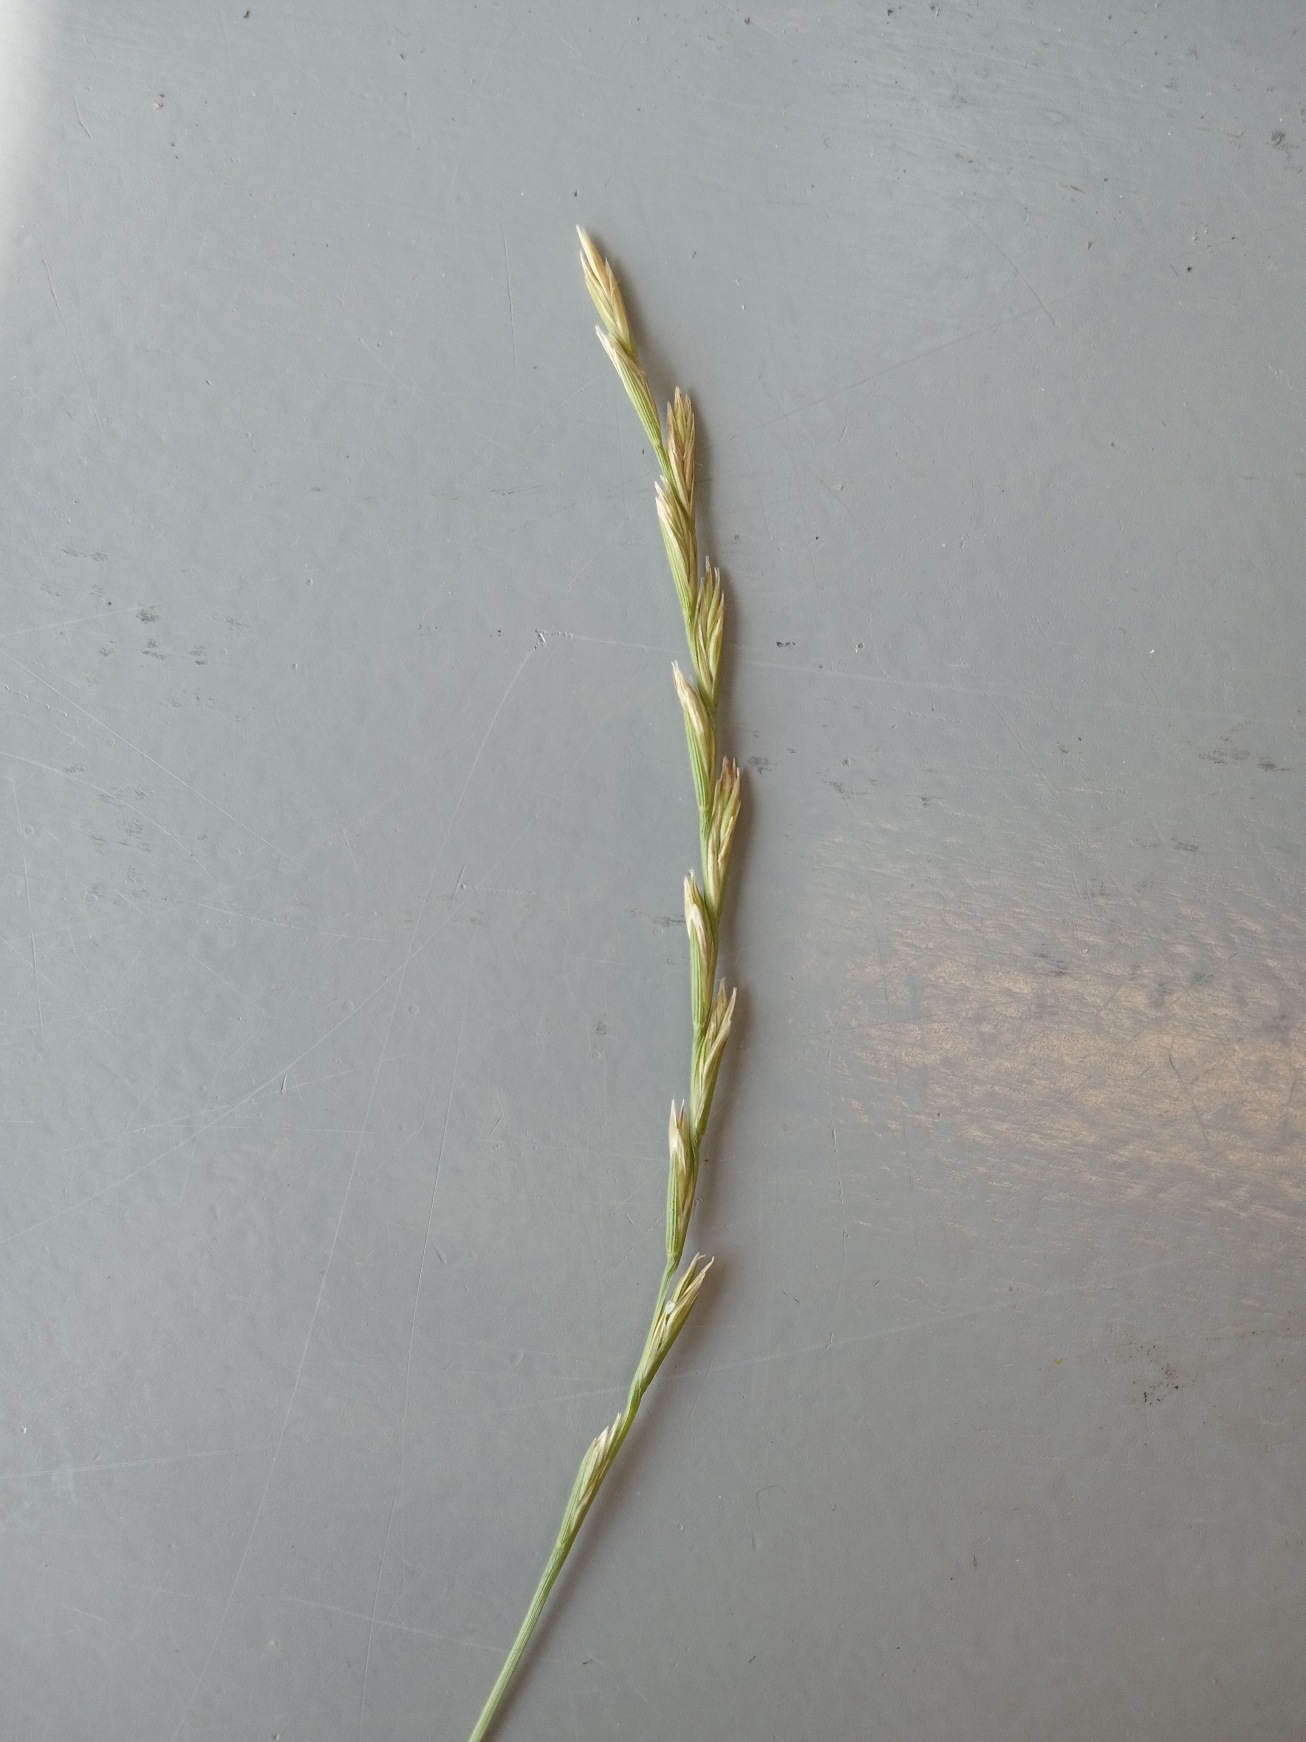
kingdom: Plantae
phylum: Tracheophyta
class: Liliopsida
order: Poales
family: Poaceae
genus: Lolium
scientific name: Lolium perenne
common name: Almindelig rajgræs
